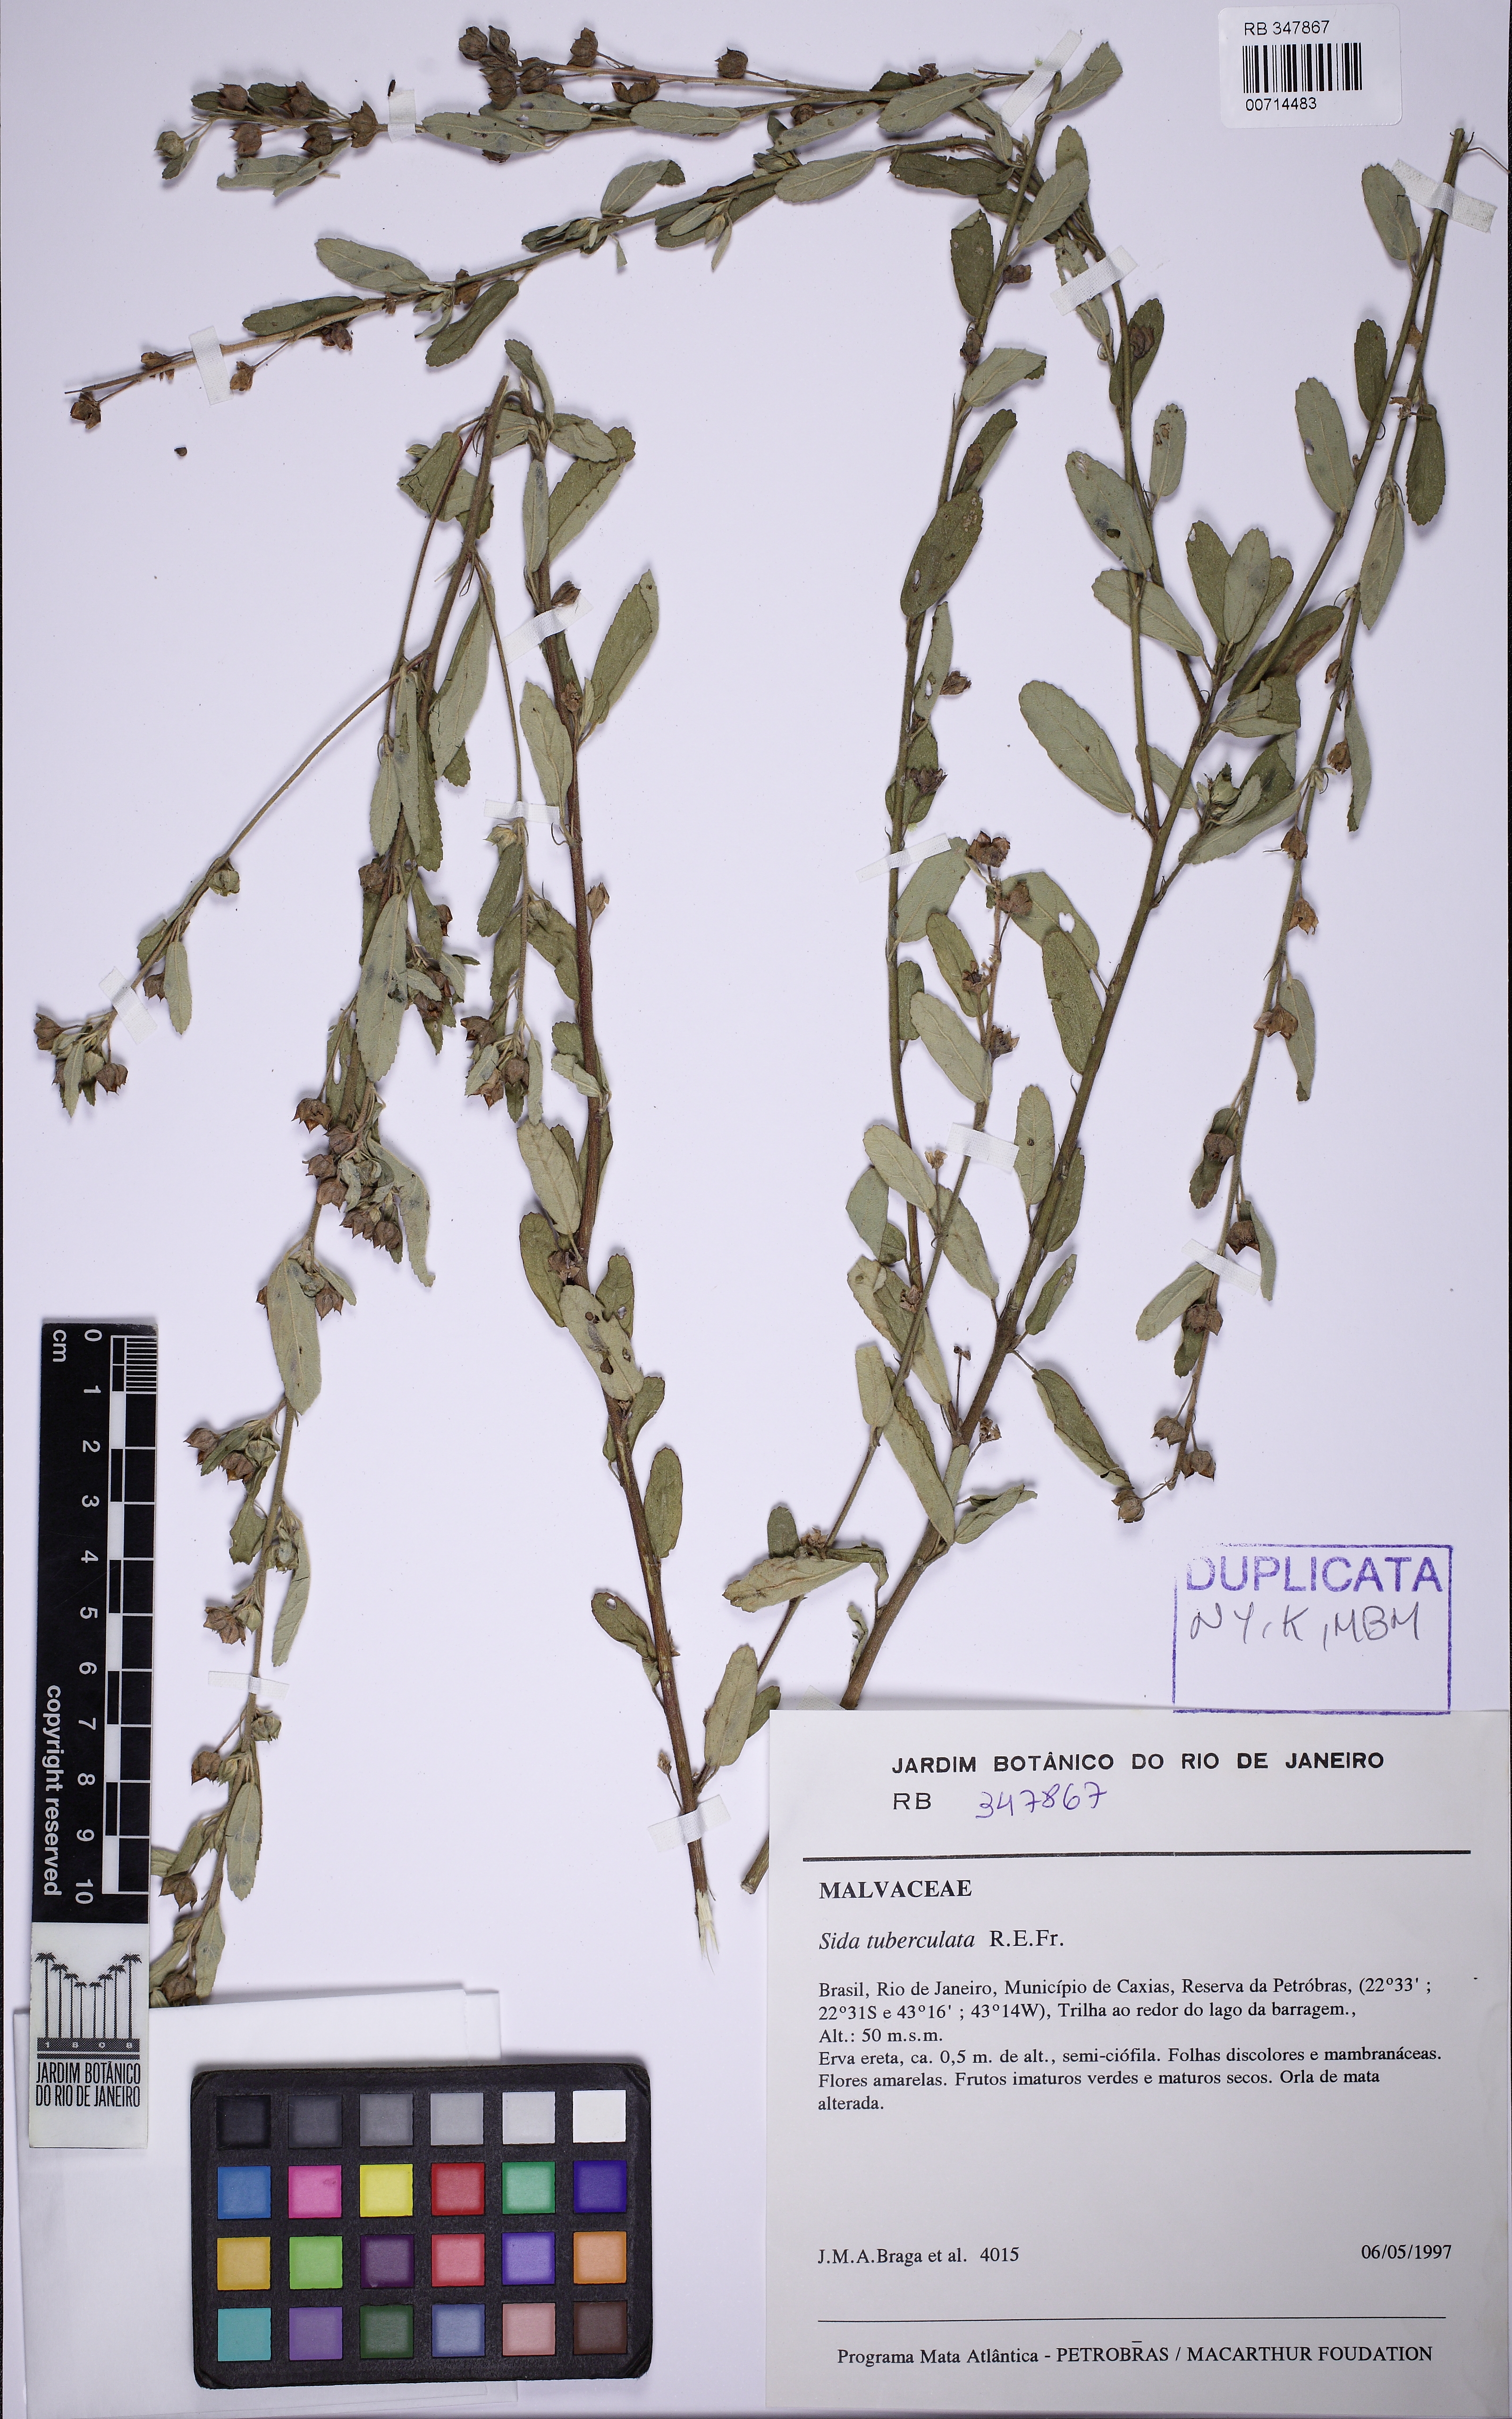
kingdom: Plantae
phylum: Tracheophyta
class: Magnoliopsida
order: Malvales
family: Malvaceae
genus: Sida
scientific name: Sida tuberculata
